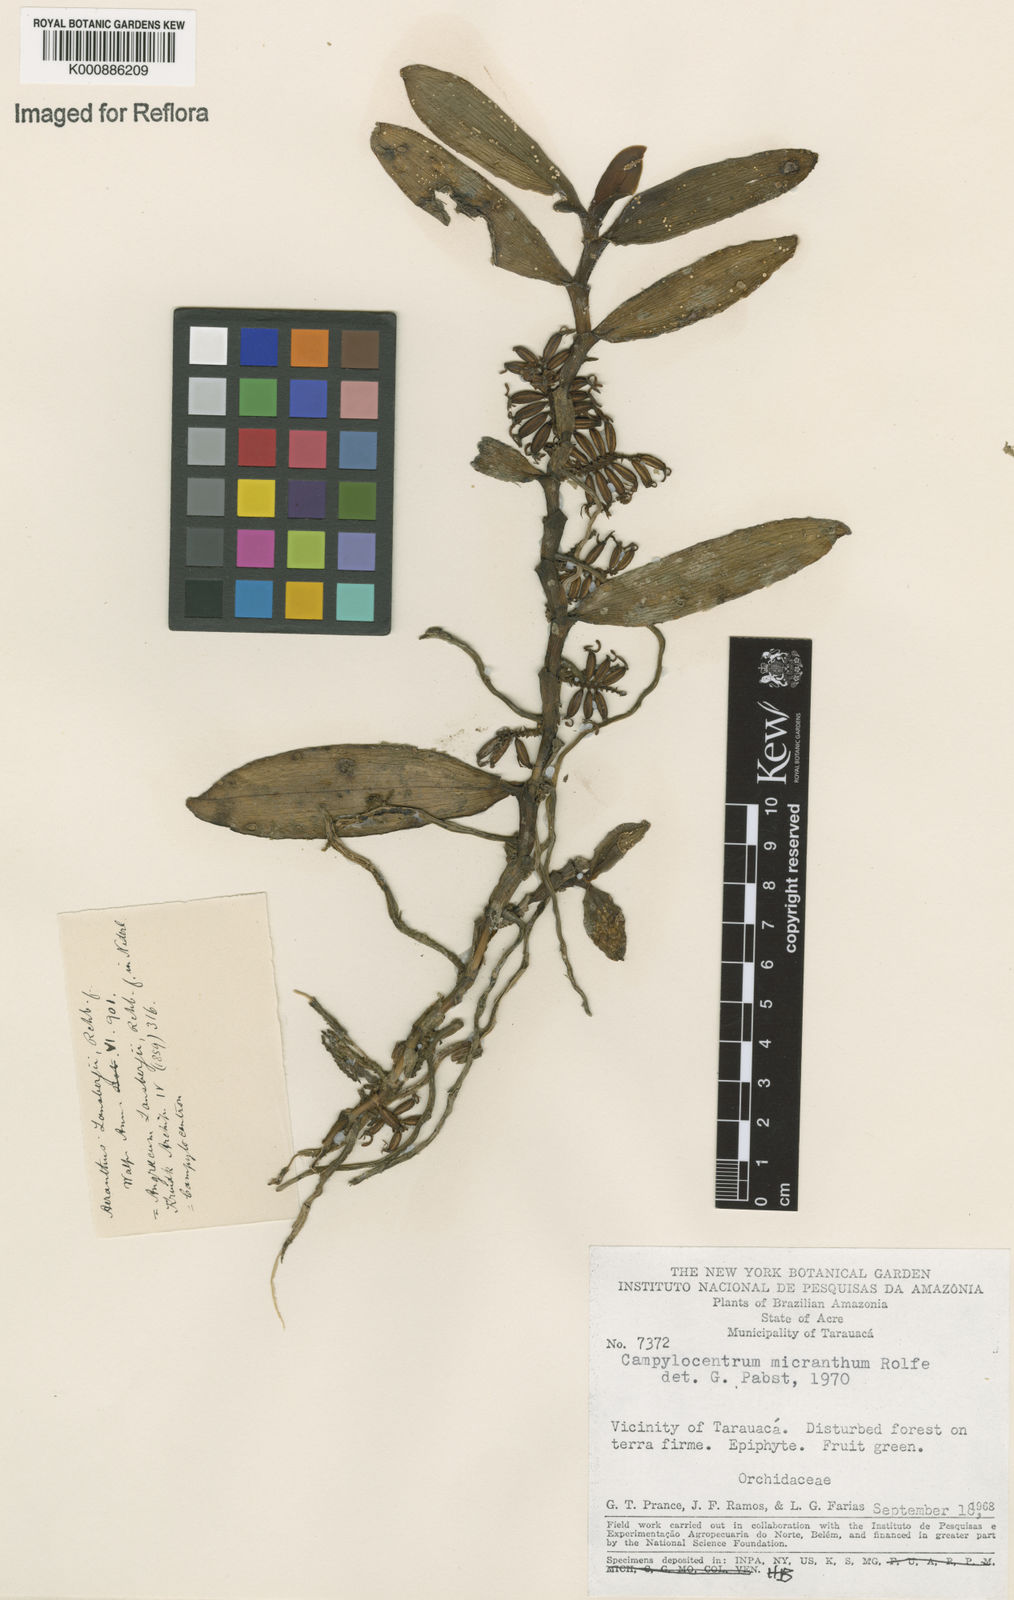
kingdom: Plantae
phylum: Tracheophyta
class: Liliopsida
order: Asparagales
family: Orchidaceae
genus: Campylocentrum
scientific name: Campylocentrum micranthum
